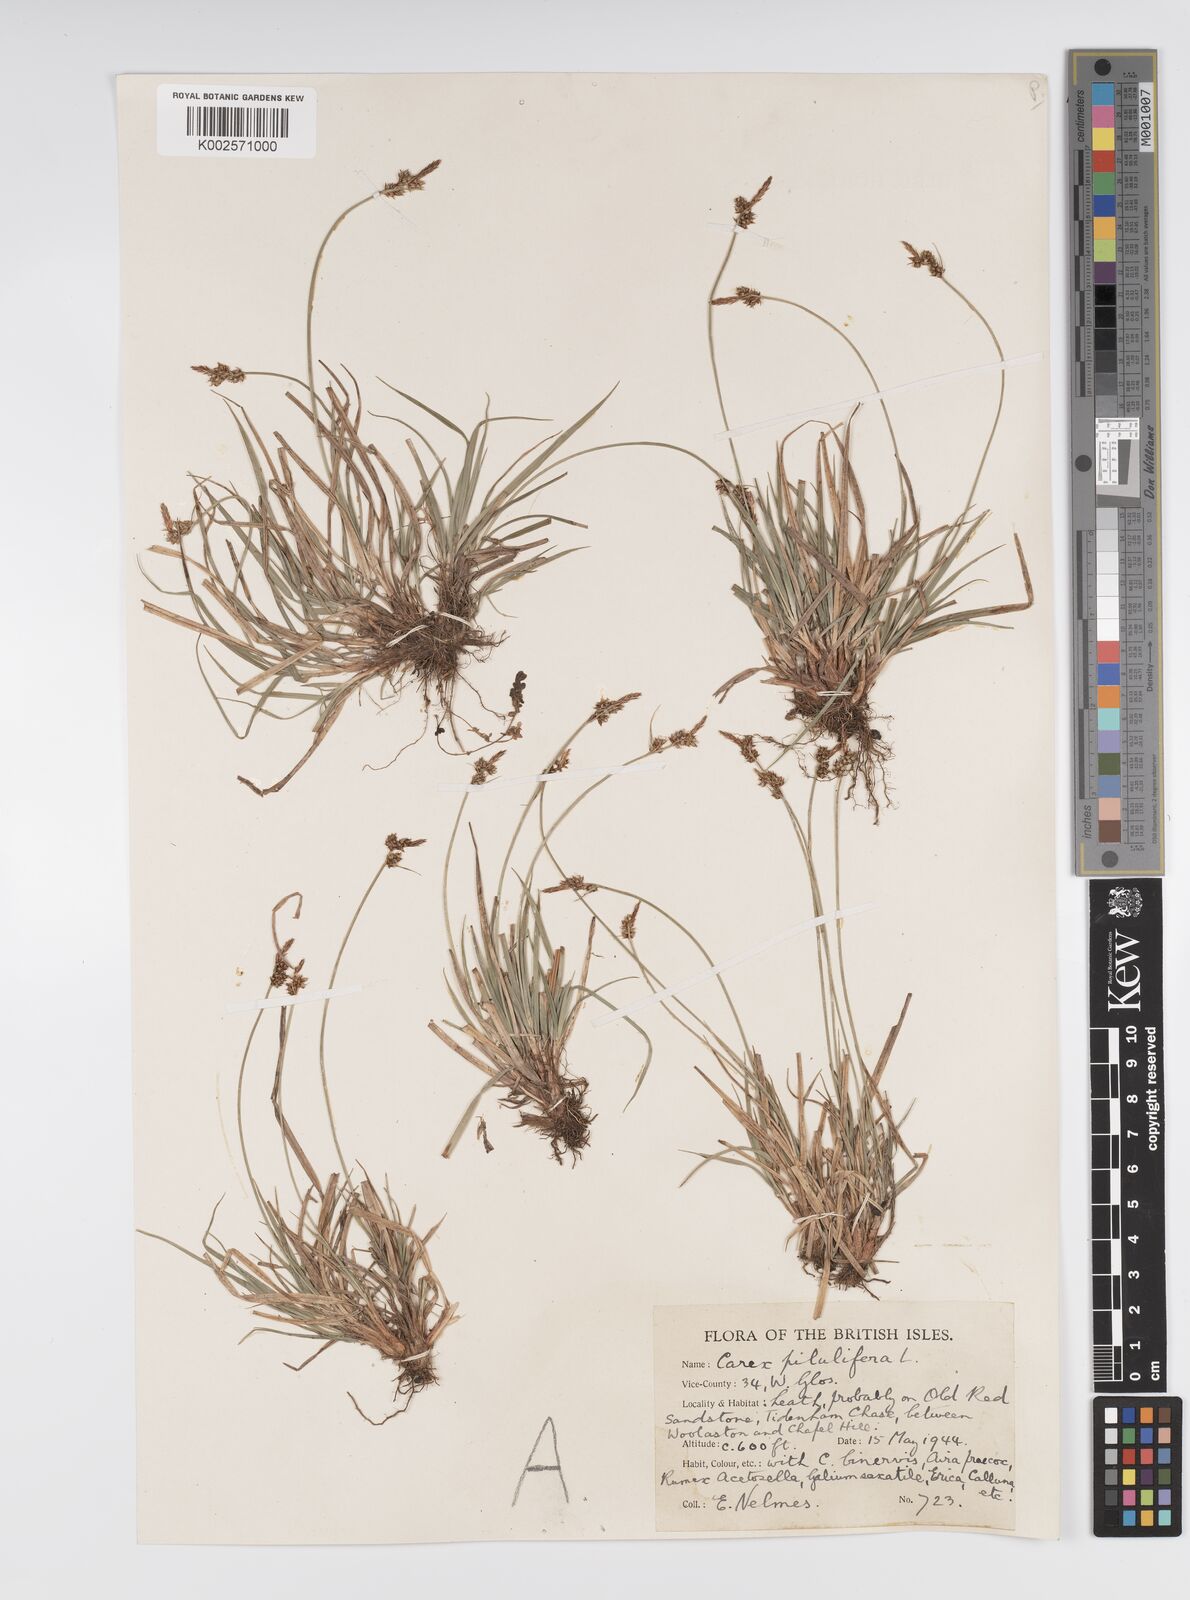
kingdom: Plantae
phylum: Tracheophyta
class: Liliopsida
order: Poales
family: Cyperaceae
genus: Carex
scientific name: Carex praecox
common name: Early sedge
